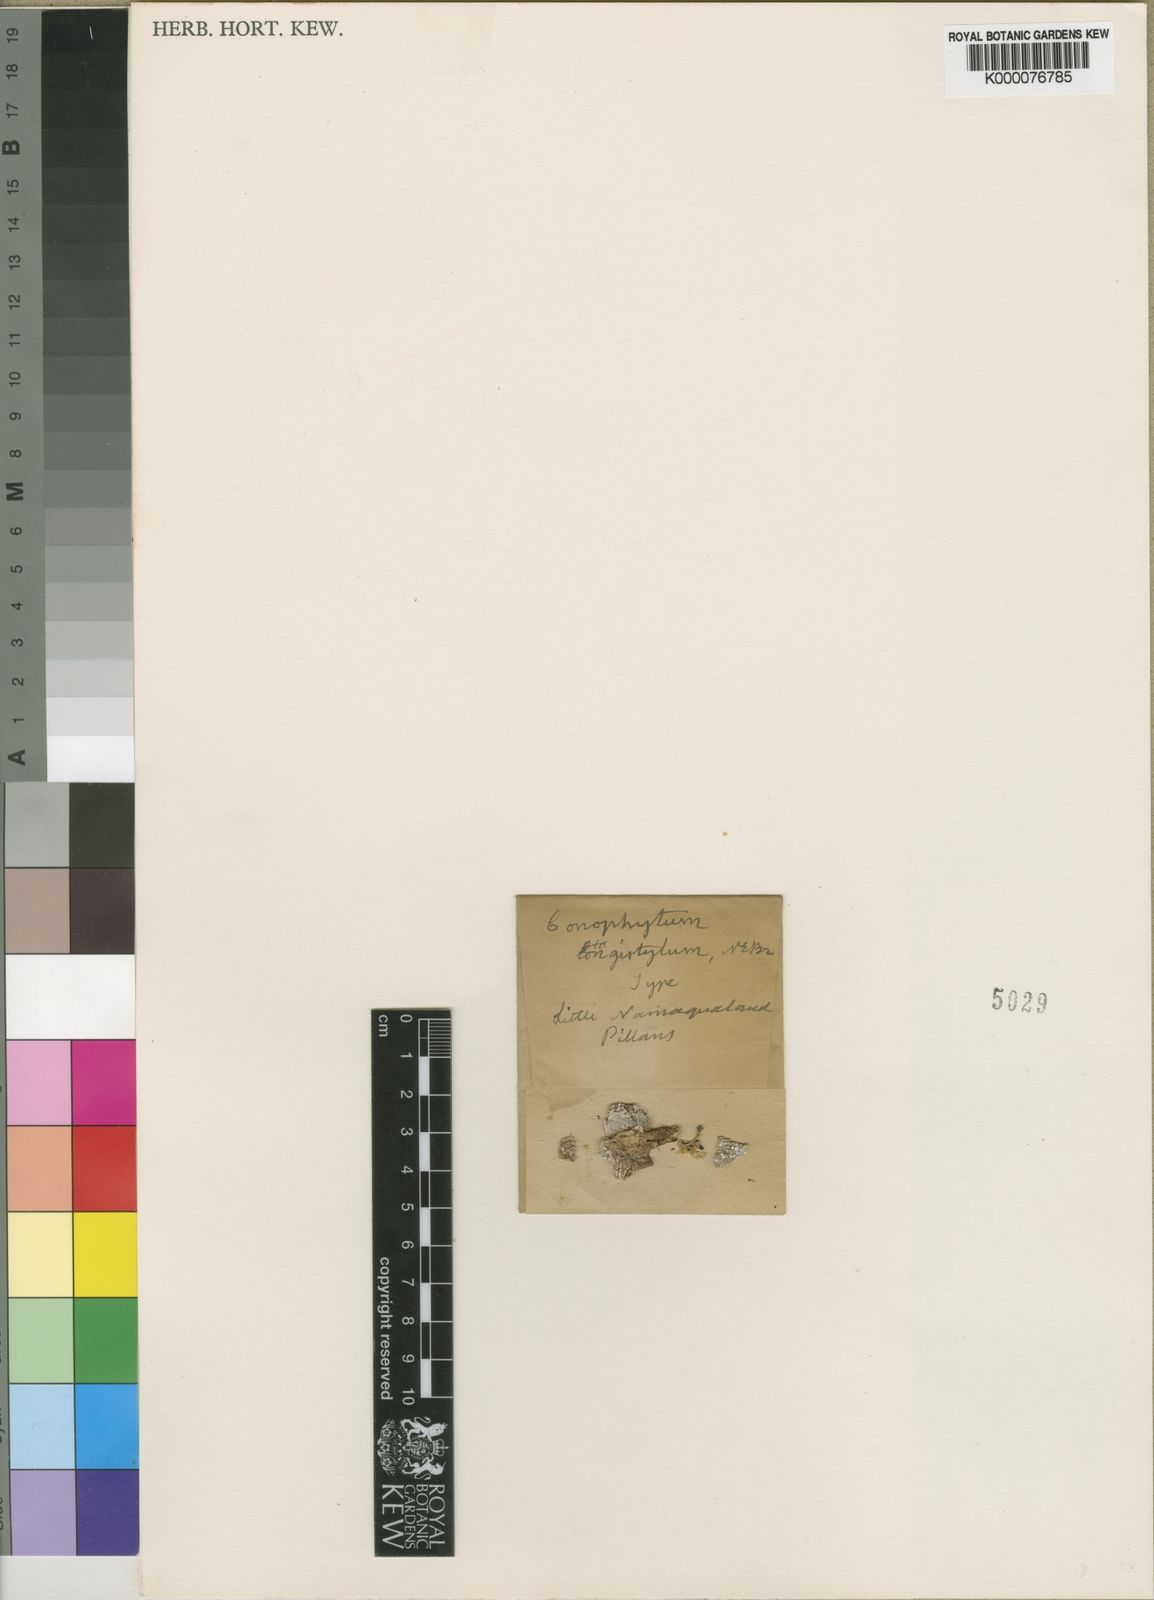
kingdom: Plantae
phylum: Tracheophyta
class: Magnoliopsida
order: Caryophyllales
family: Aizoaceae
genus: Conophytum
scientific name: Conophytum jucundum
